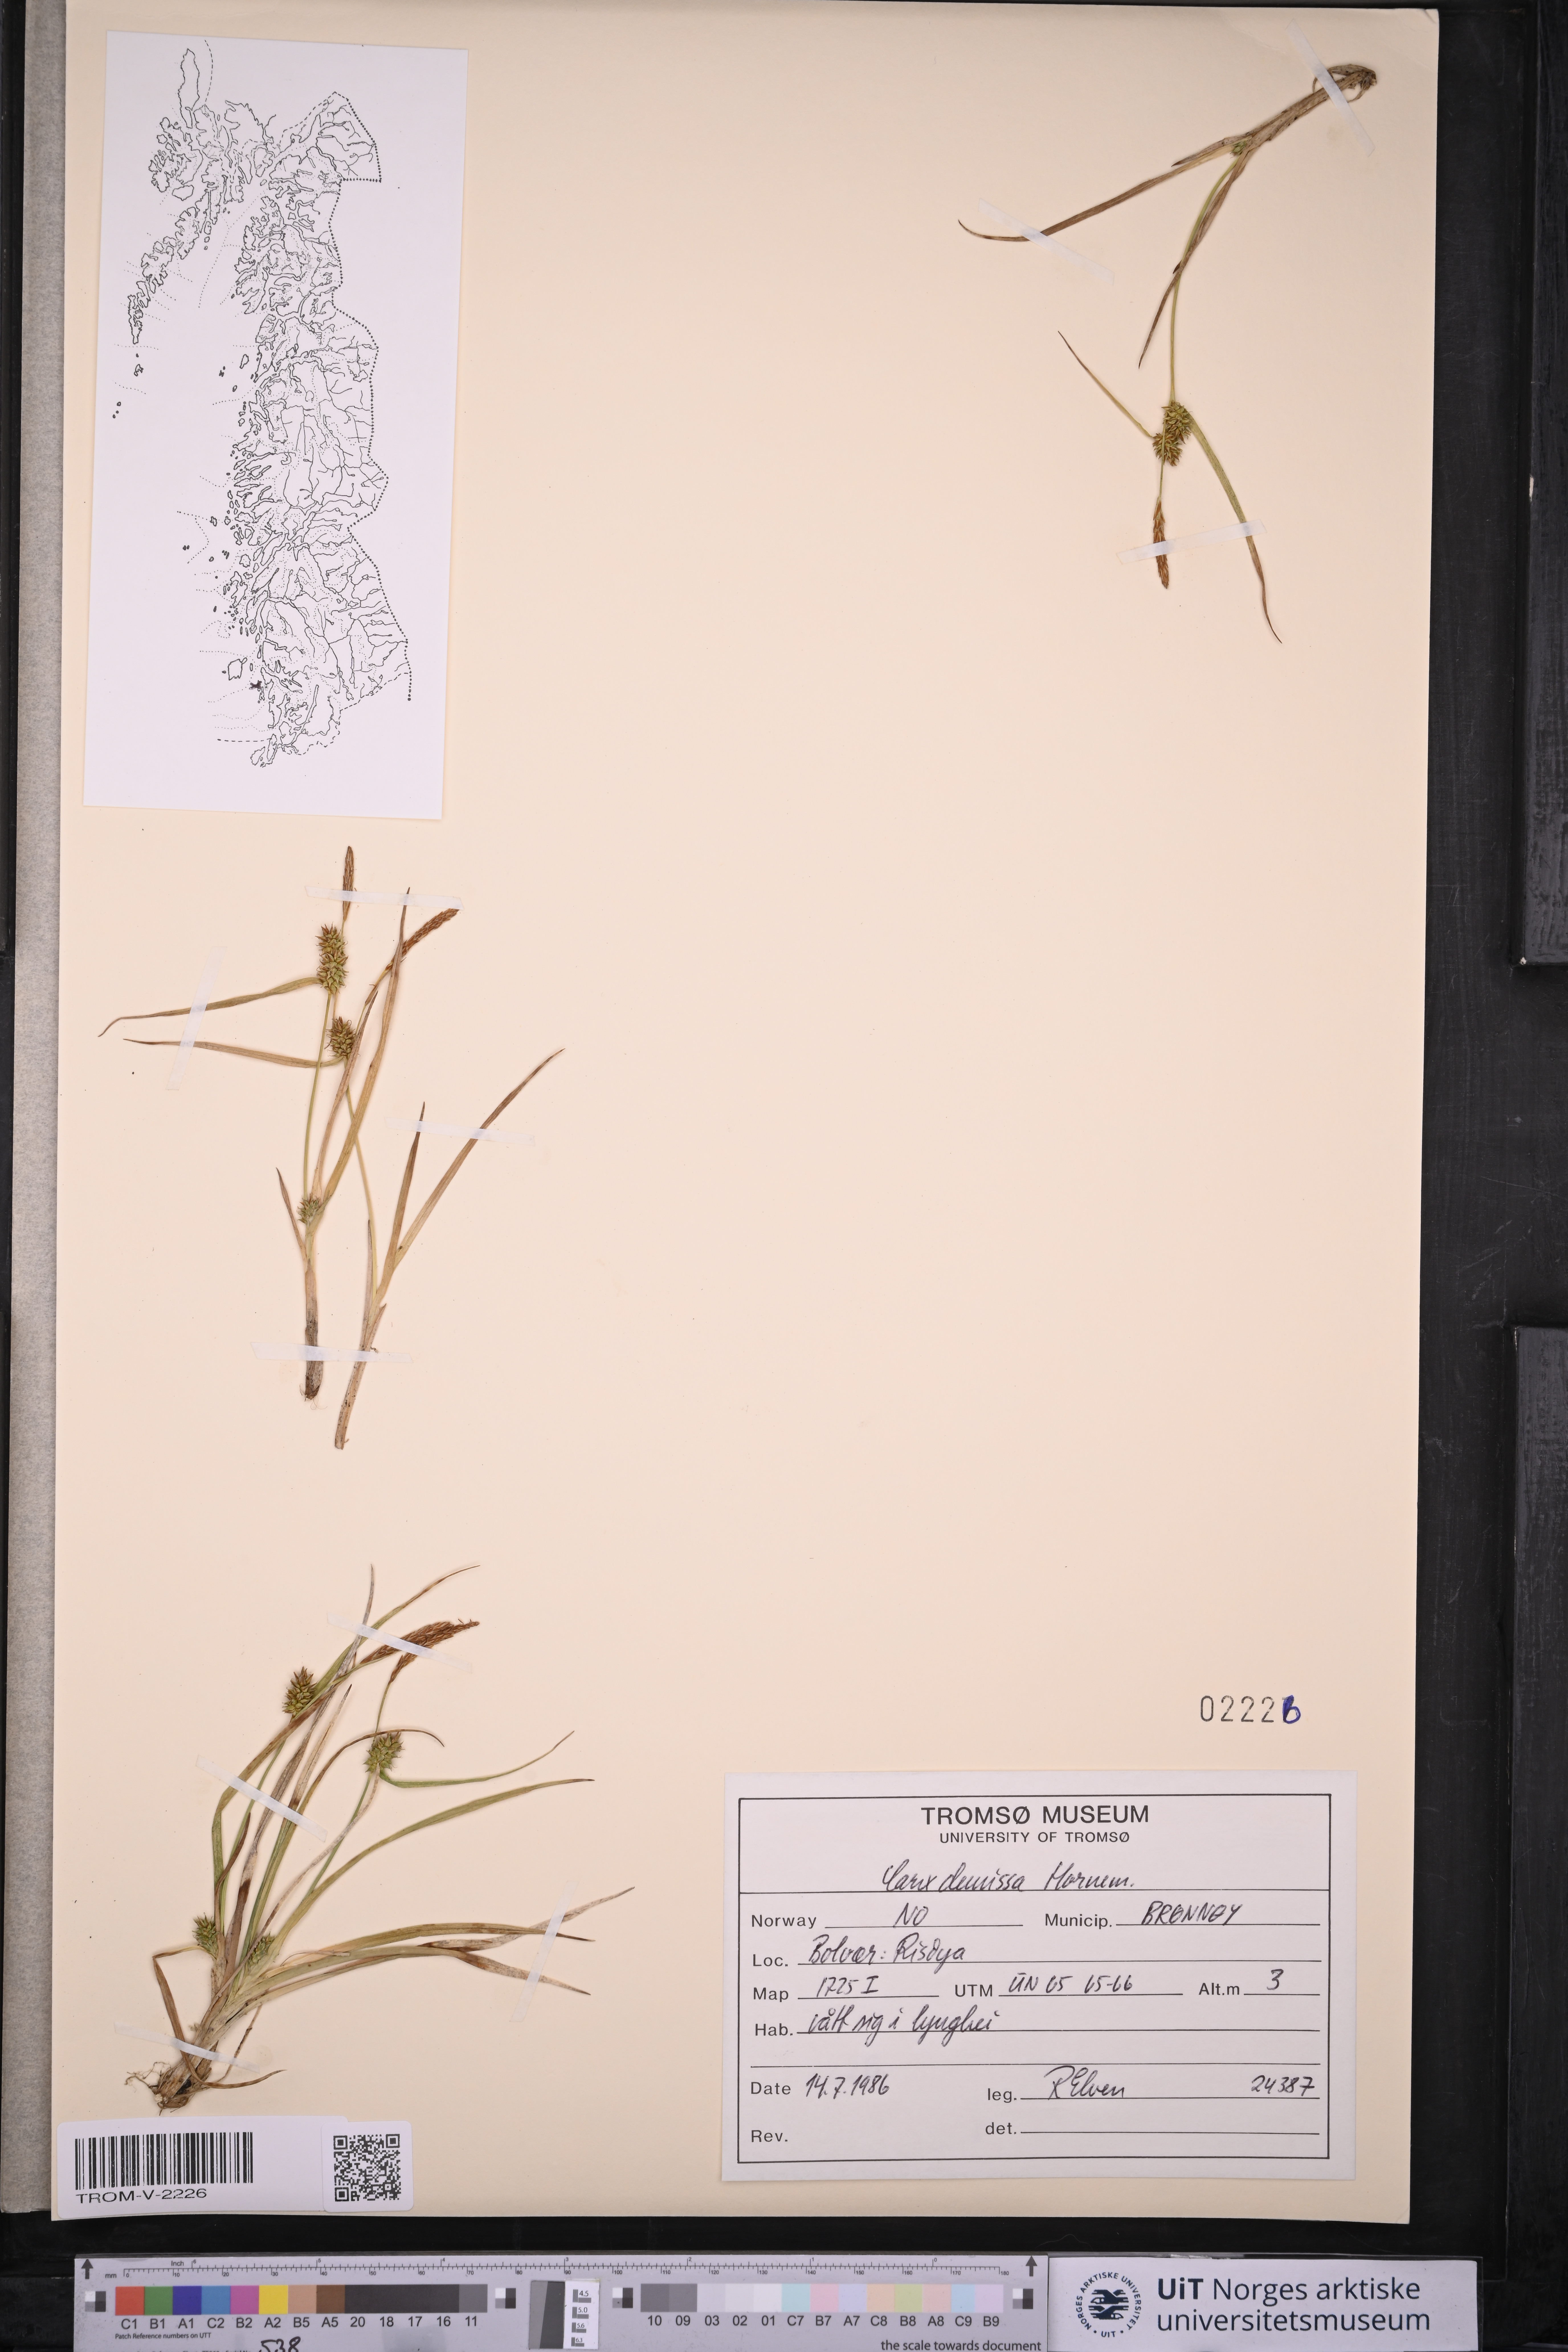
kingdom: Plantae
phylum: Tracheophyta
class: Liliopsida
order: Poales
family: Cyperaceae
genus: Carex
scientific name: Carex demissa
